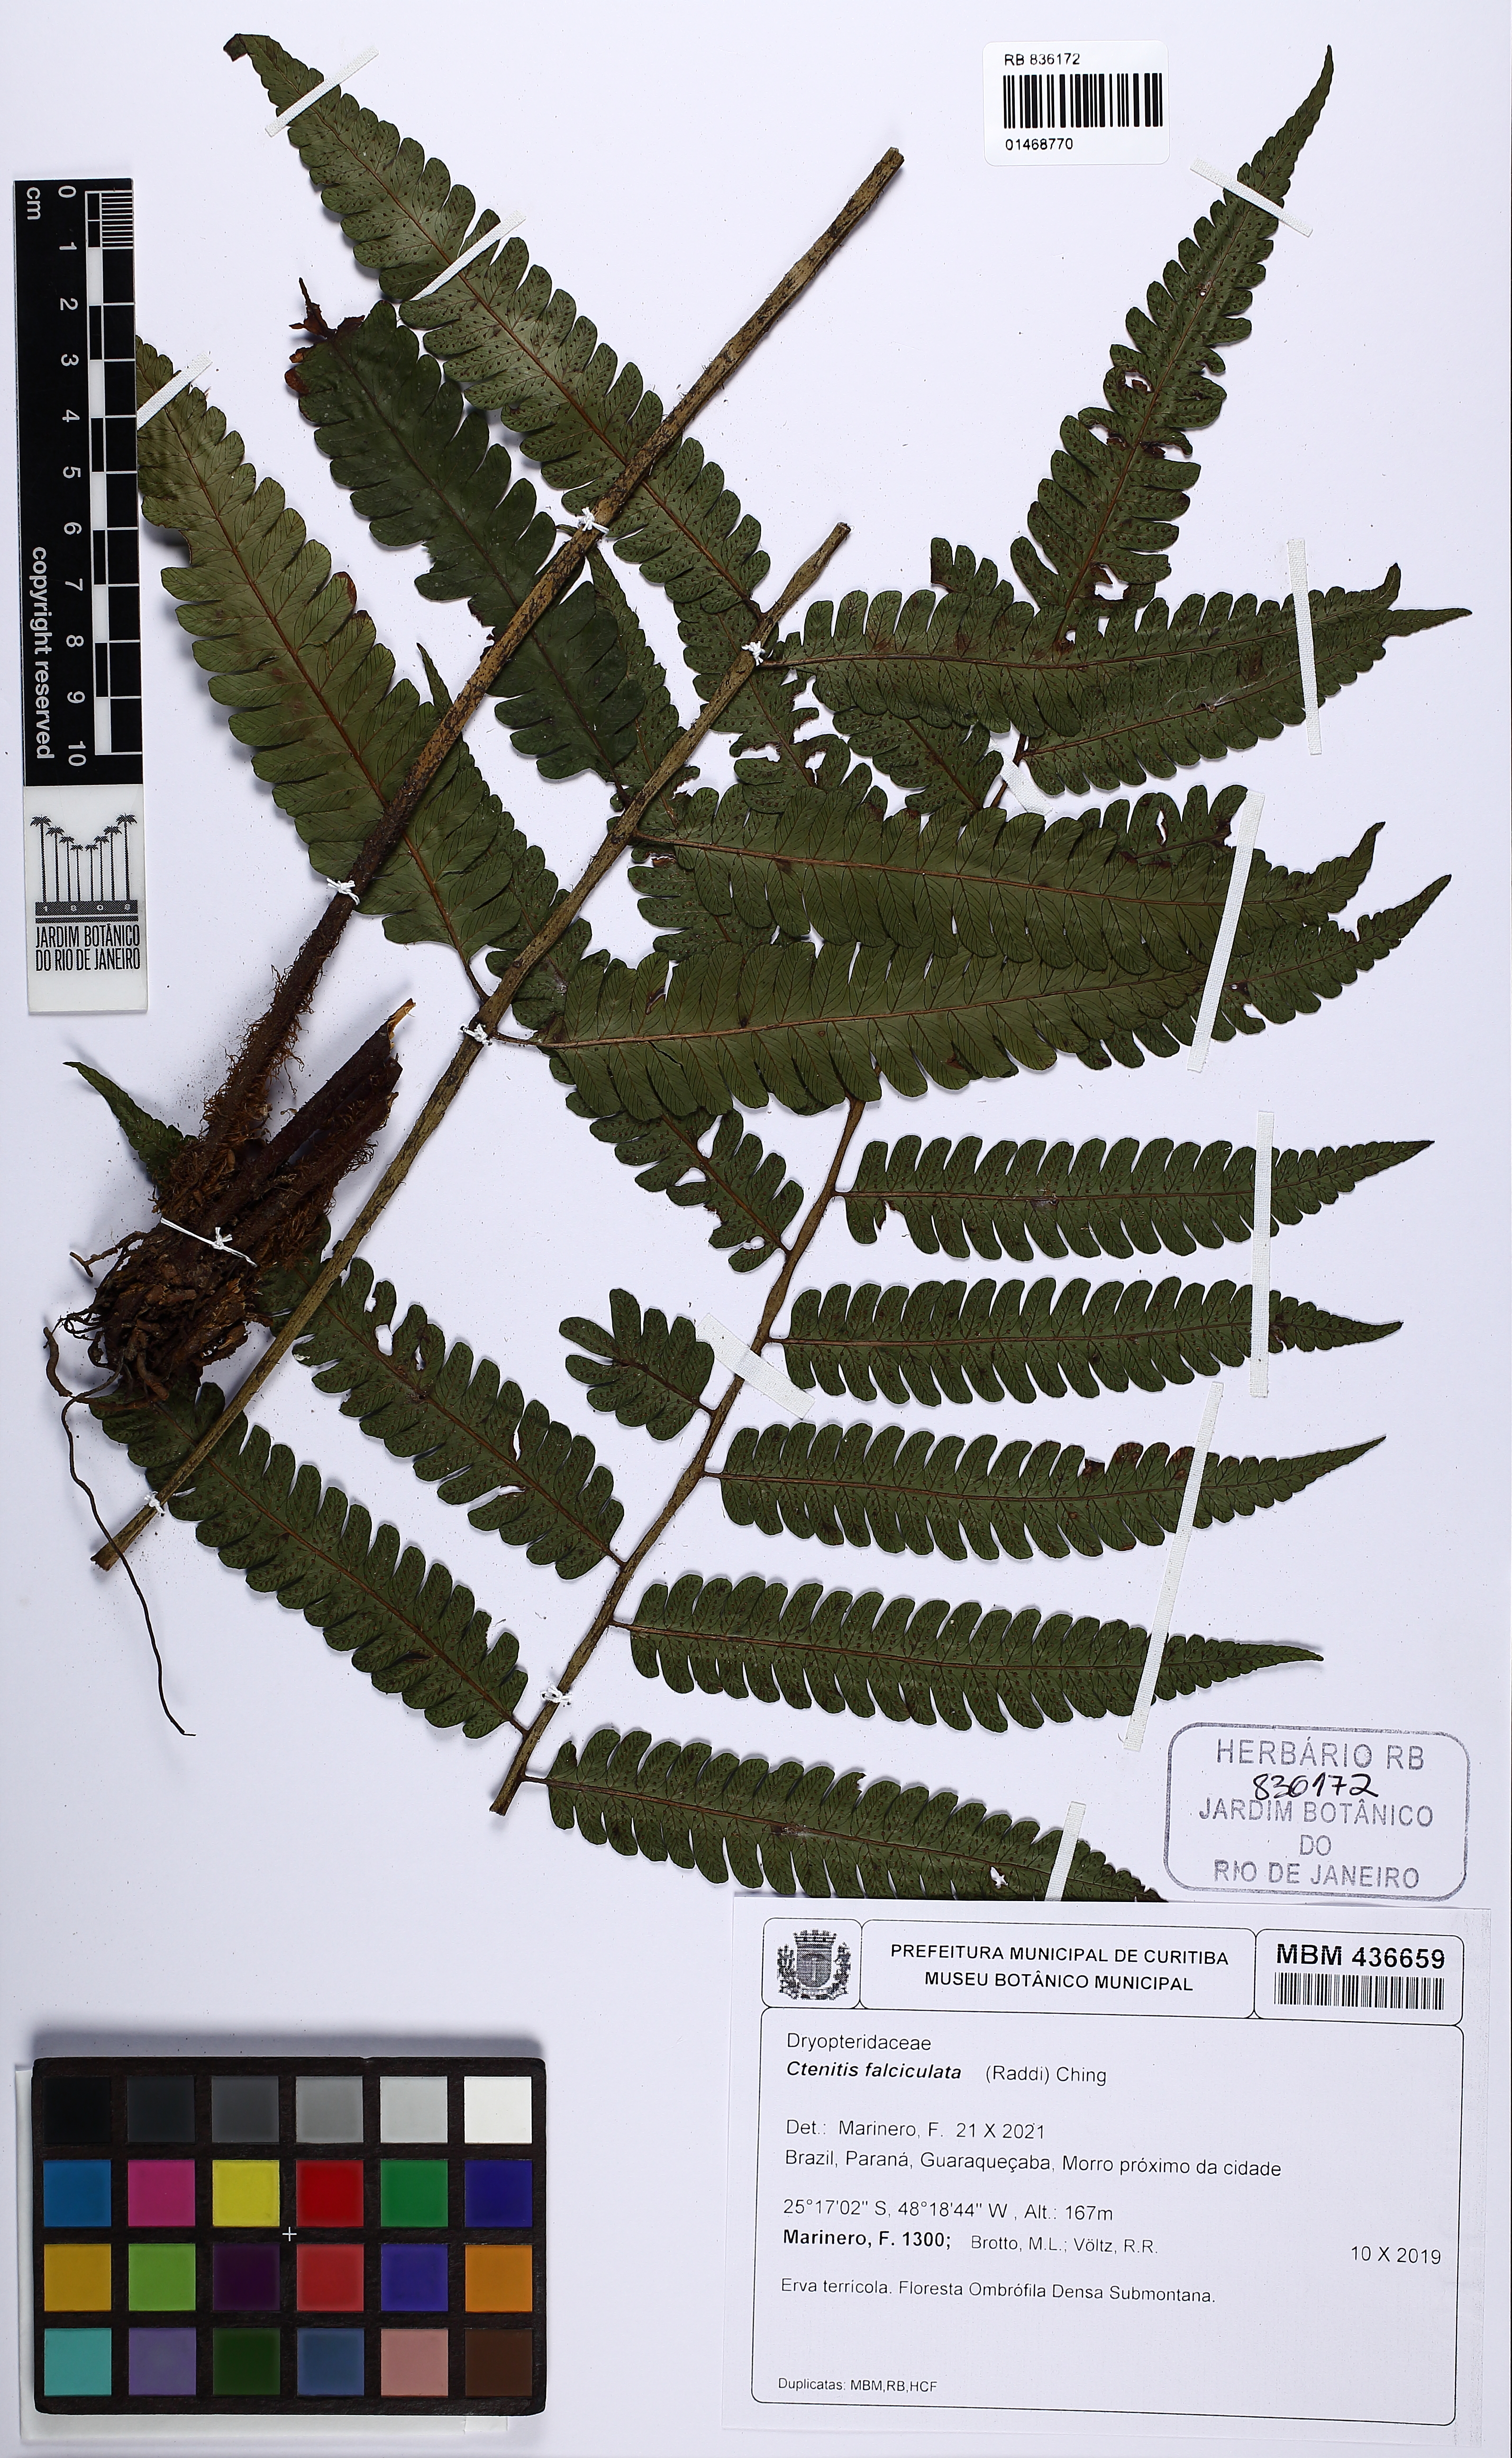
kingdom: Plantae
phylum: Tracheophyta
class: Polypodiopsida
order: Polypodiales
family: Dryopteridaceae
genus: Ctenitis
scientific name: Ctenitis falciculata
